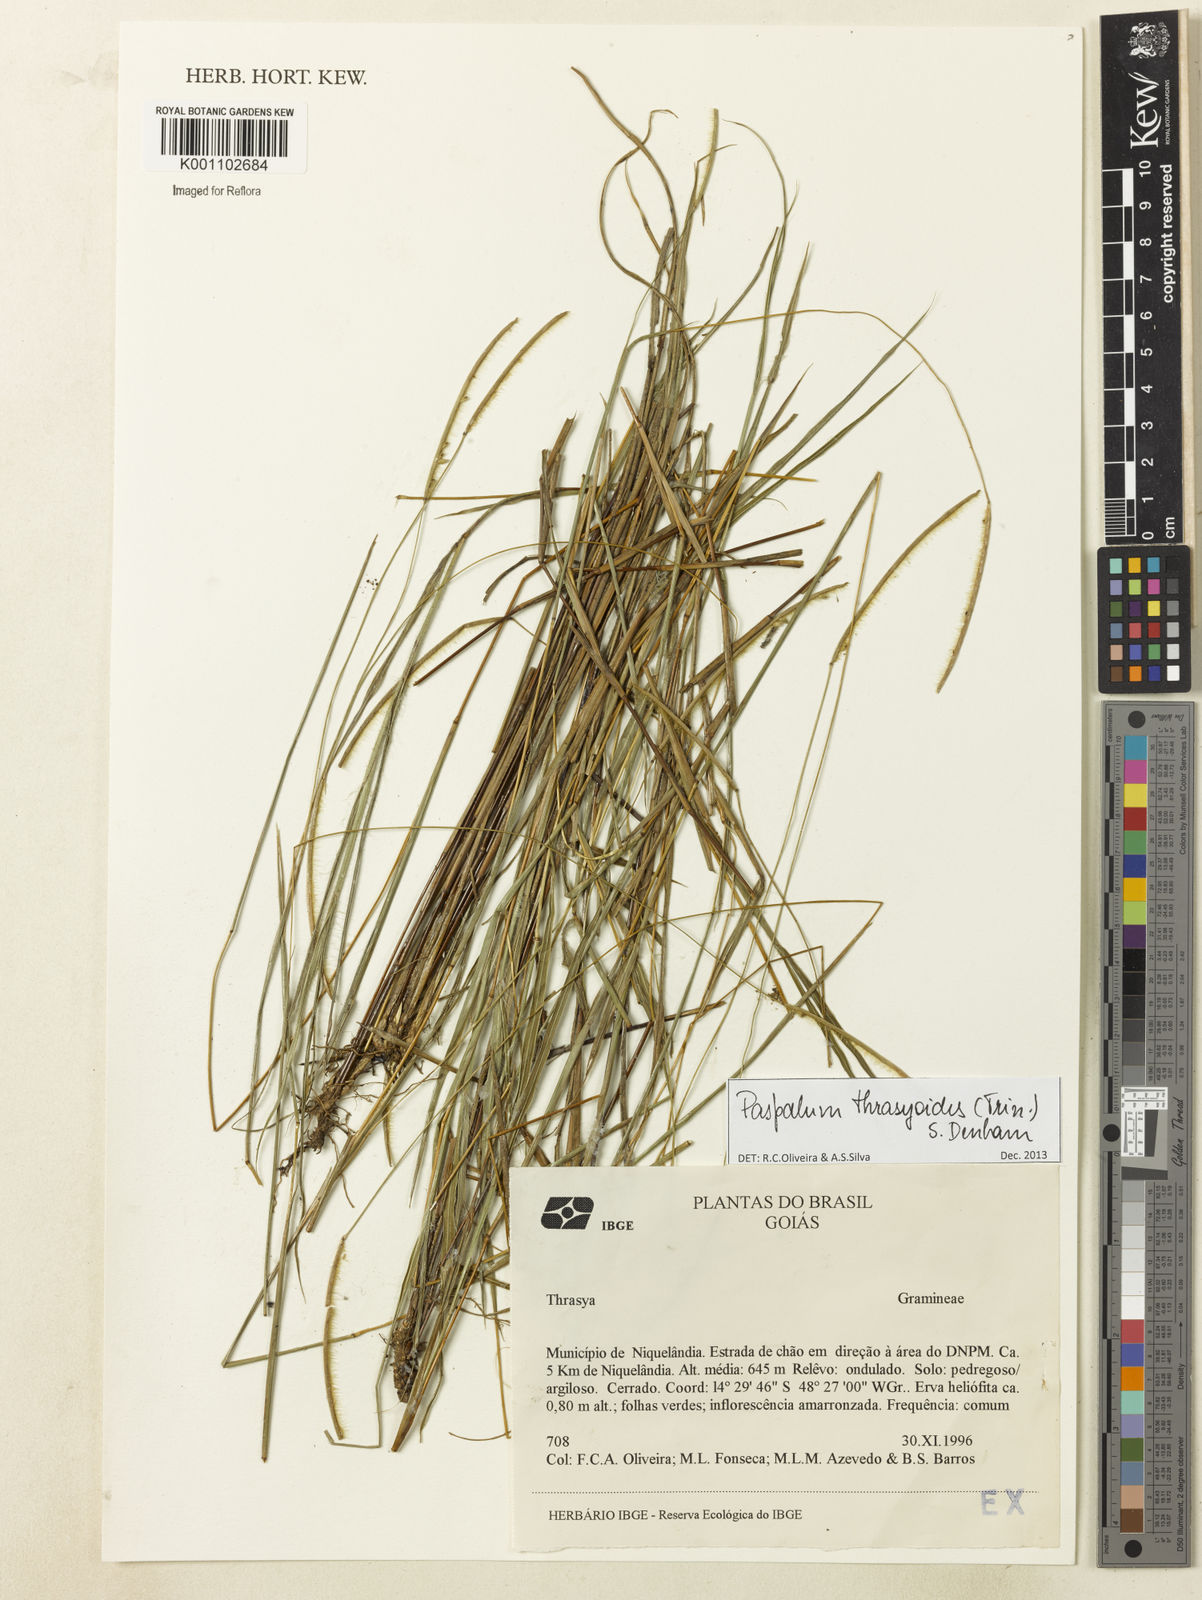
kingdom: Plantae
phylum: Tracheophyta
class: Liliopsida
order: Poales
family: Poaceae
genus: Paspalum
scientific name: Paspalum thrasyoides
